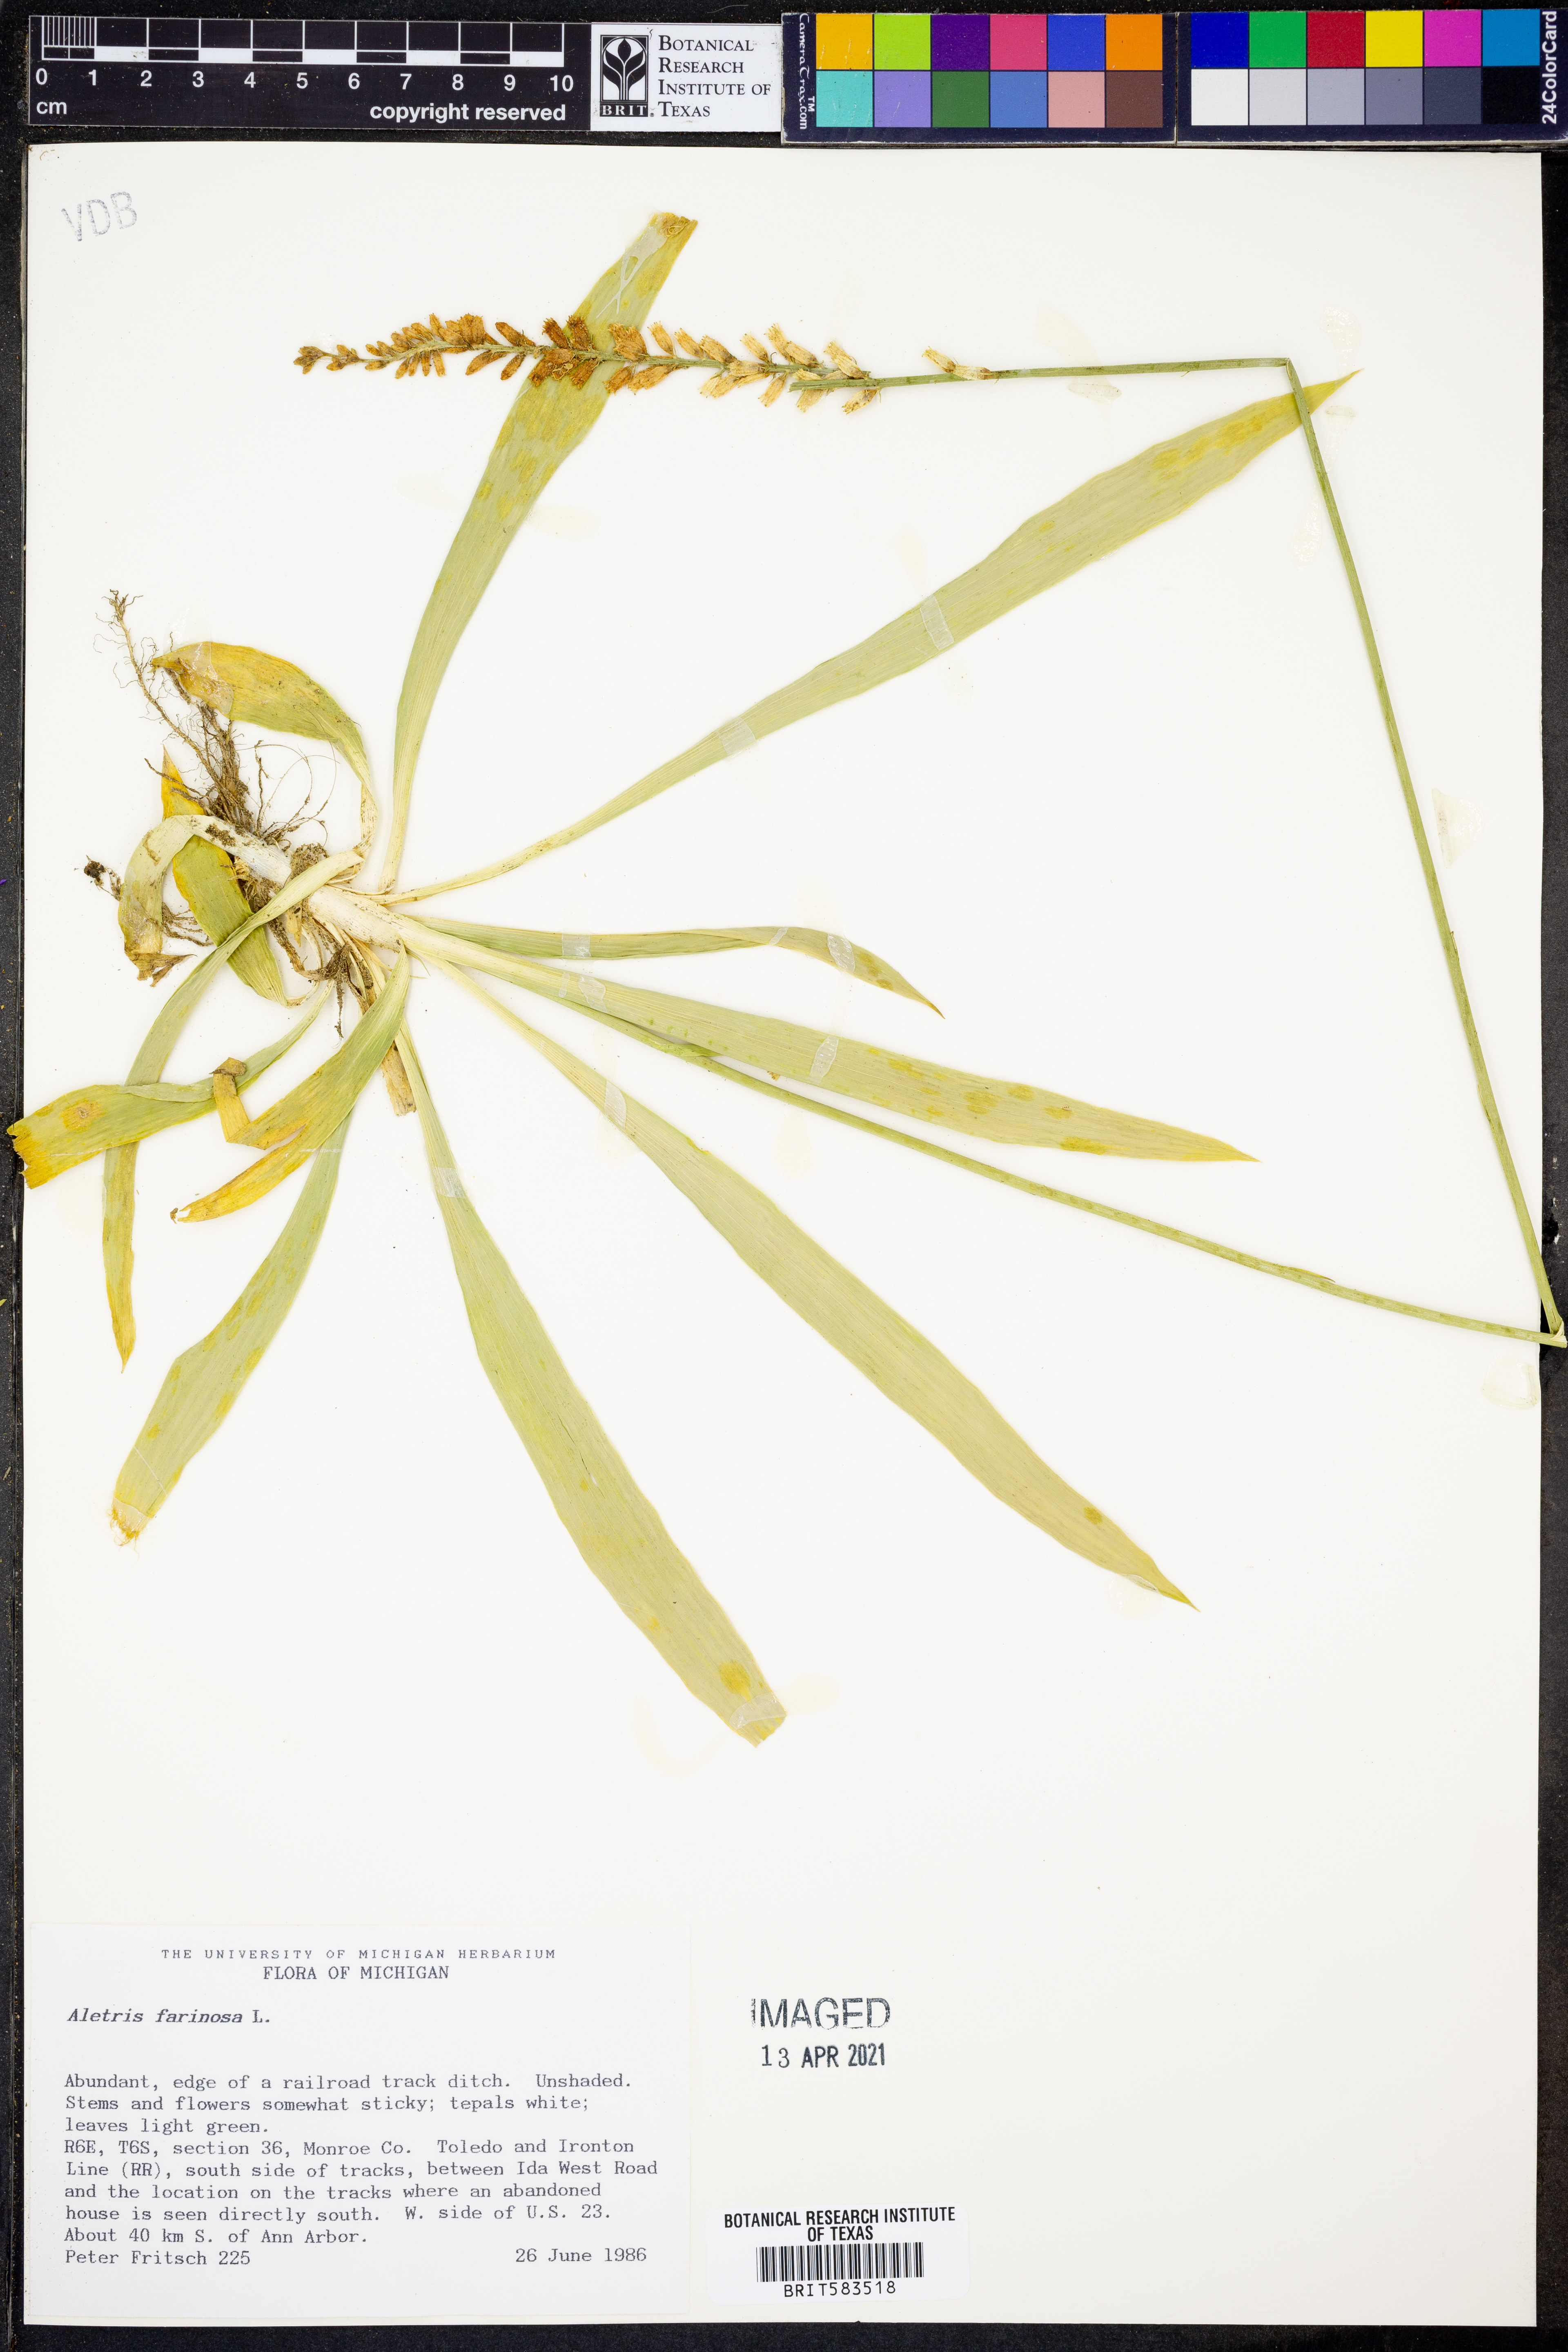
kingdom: Plantae
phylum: Tracheophyta
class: Liliopsida
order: Dioscoreales
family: Nartheciaceae
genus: Aletris
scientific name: Aletris farinosa
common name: Colicroot
